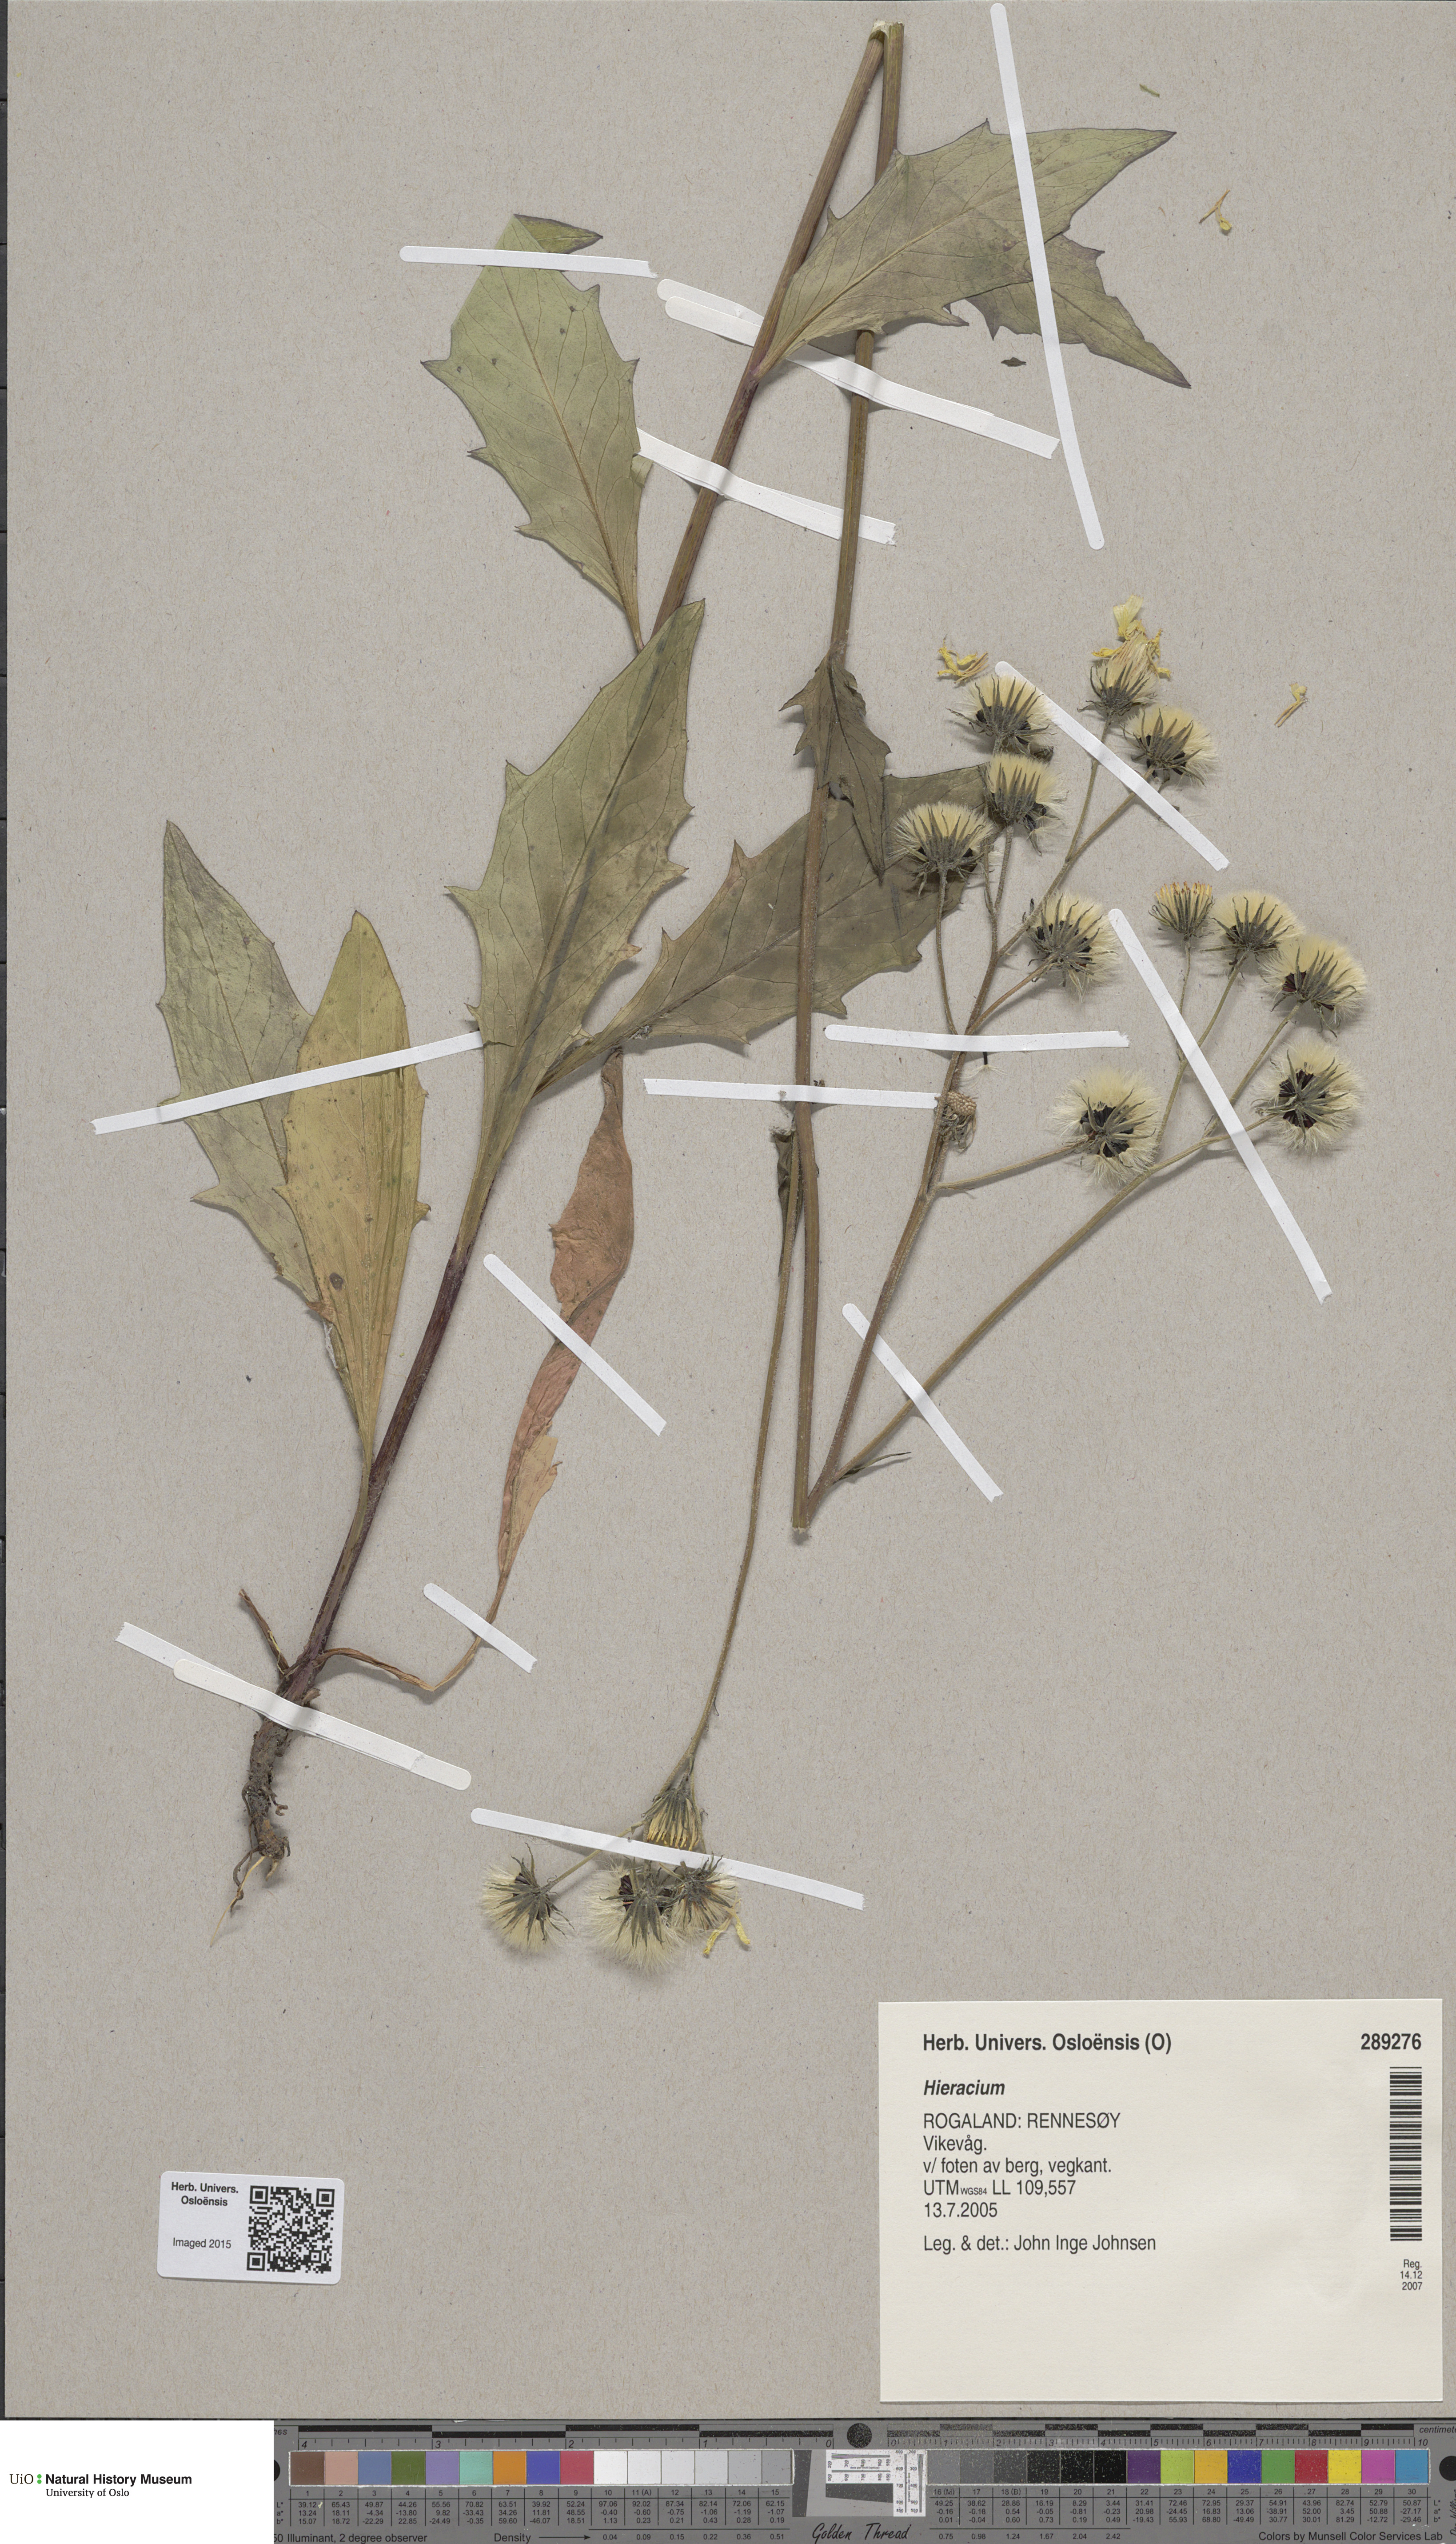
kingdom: Plantae
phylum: Tracheophyta
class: Magnoliopsida
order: Asterales
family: Asteraceae
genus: Hieracium
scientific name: Hieracium
